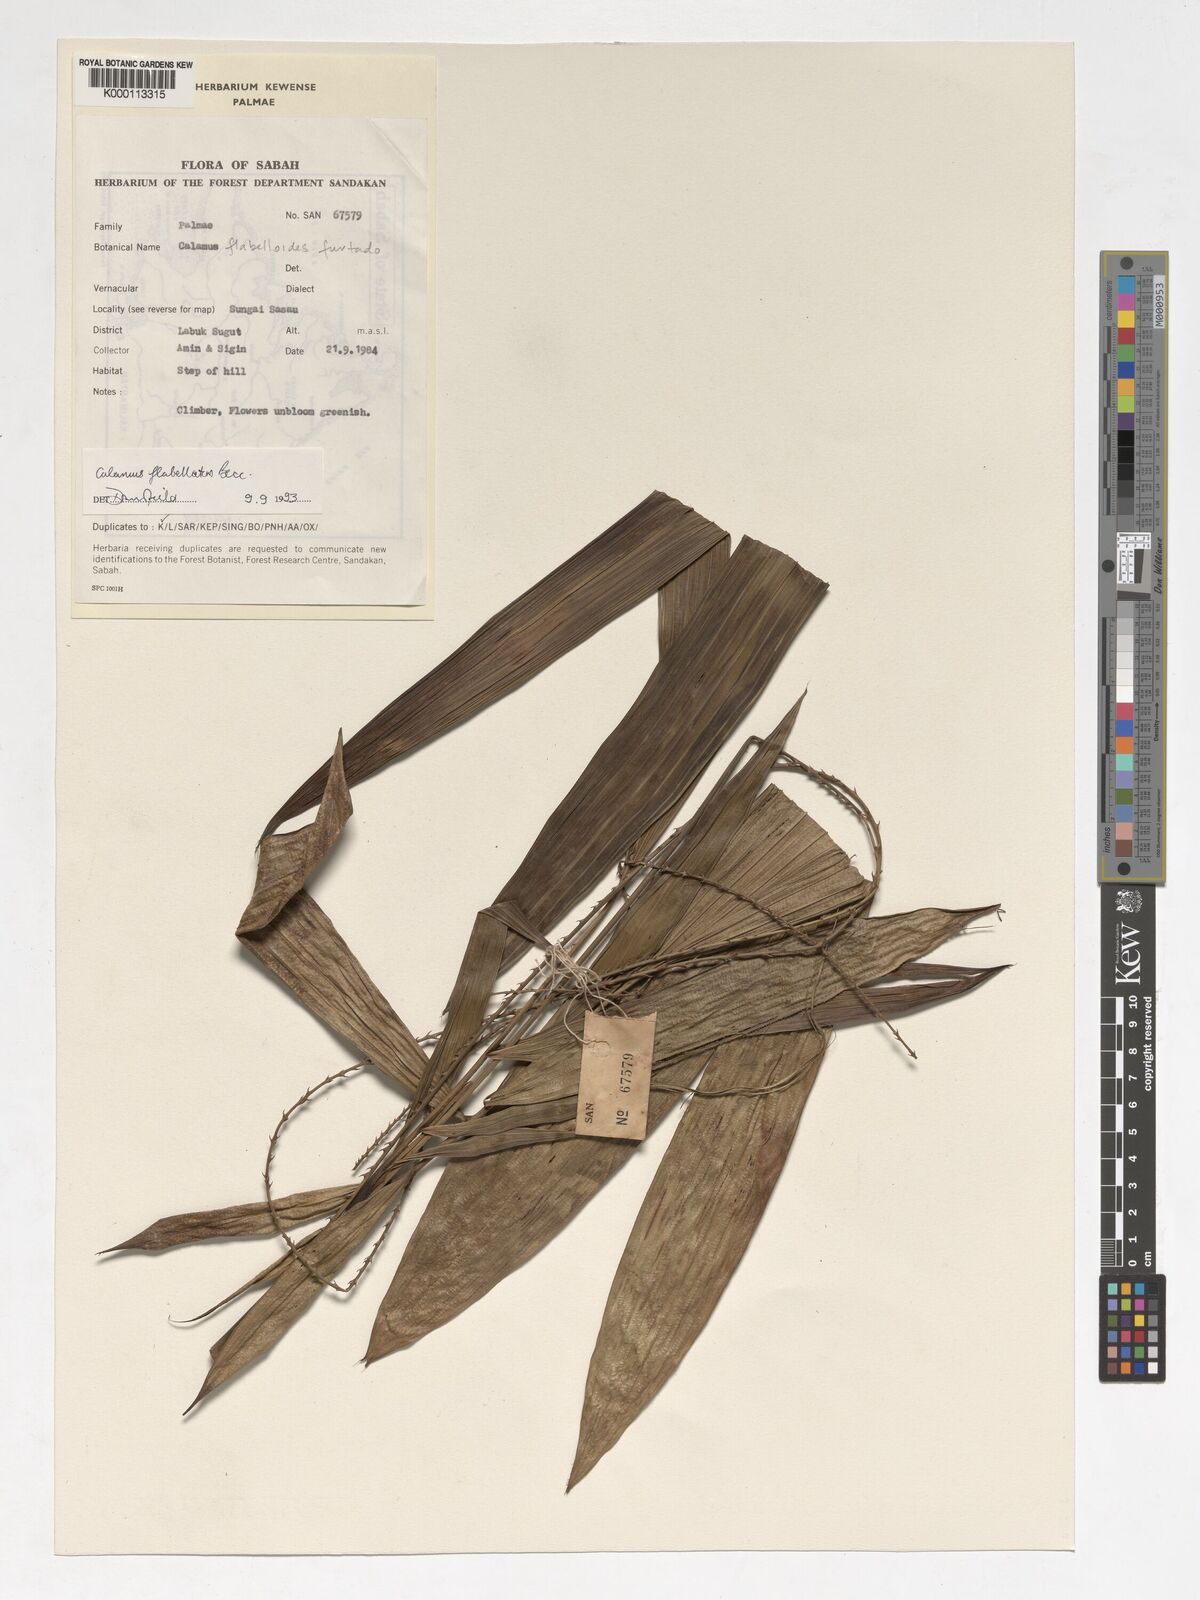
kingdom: Plantae
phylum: Tracheophyta
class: Liliopsida
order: Arecales
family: Arecaceae
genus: Calamus
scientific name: Calamus flabellatus
